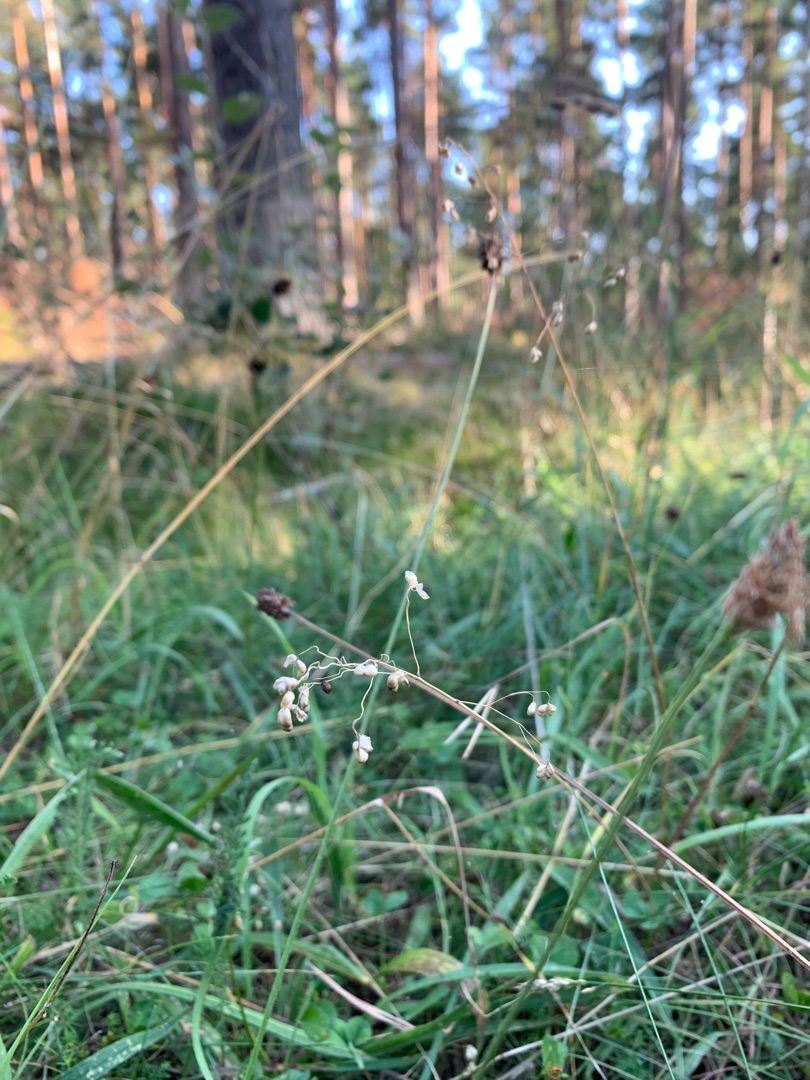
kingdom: Plantae
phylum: Tracheophyta
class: Liliopsida
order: Poales
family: Poaceae
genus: Briza
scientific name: Briza media
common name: Hjertegræs
